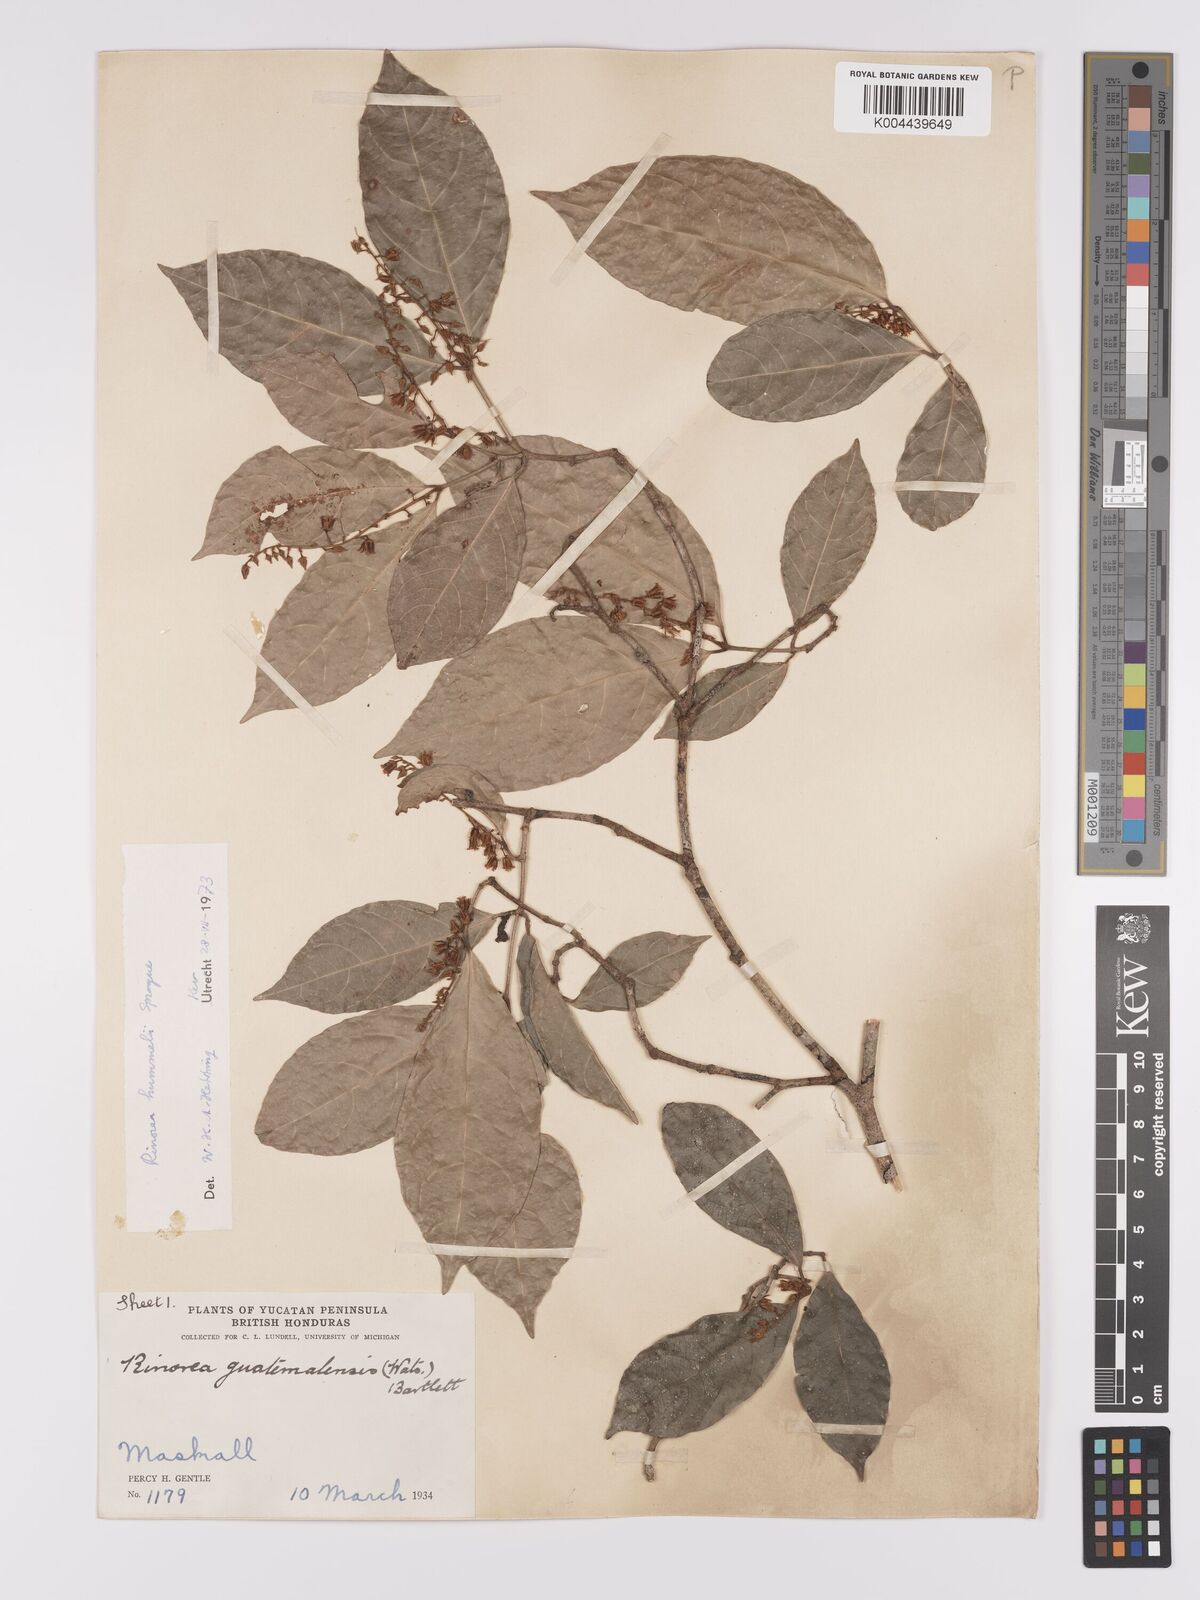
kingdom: Plantae
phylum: Tracheophyta
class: Magnoliopsida
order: Malpighiales
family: Violaceae
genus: Rinorea
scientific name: Rinorea hummelii
